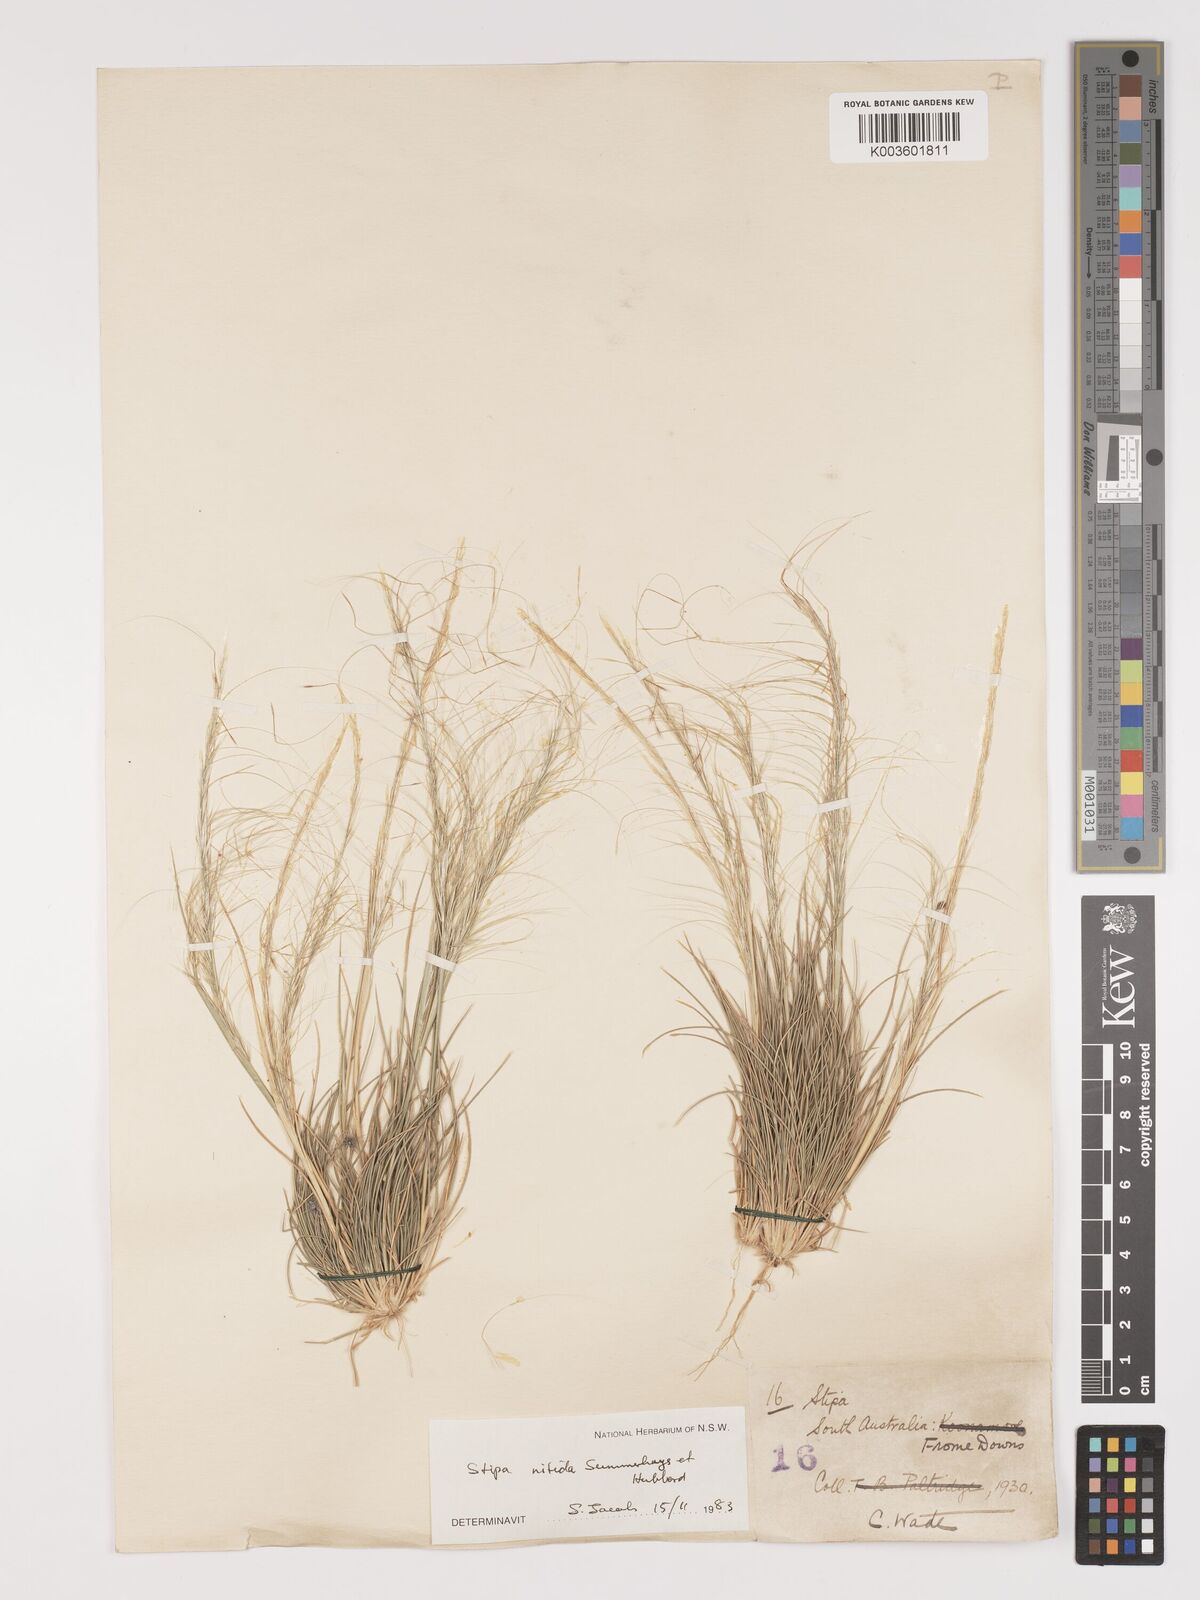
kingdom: Plantae
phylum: Tracheophyta
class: Liliopsida
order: Poales
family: Poaceae
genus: Austrostipa
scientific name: Austrostipa nitida
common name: Balcarra grass
